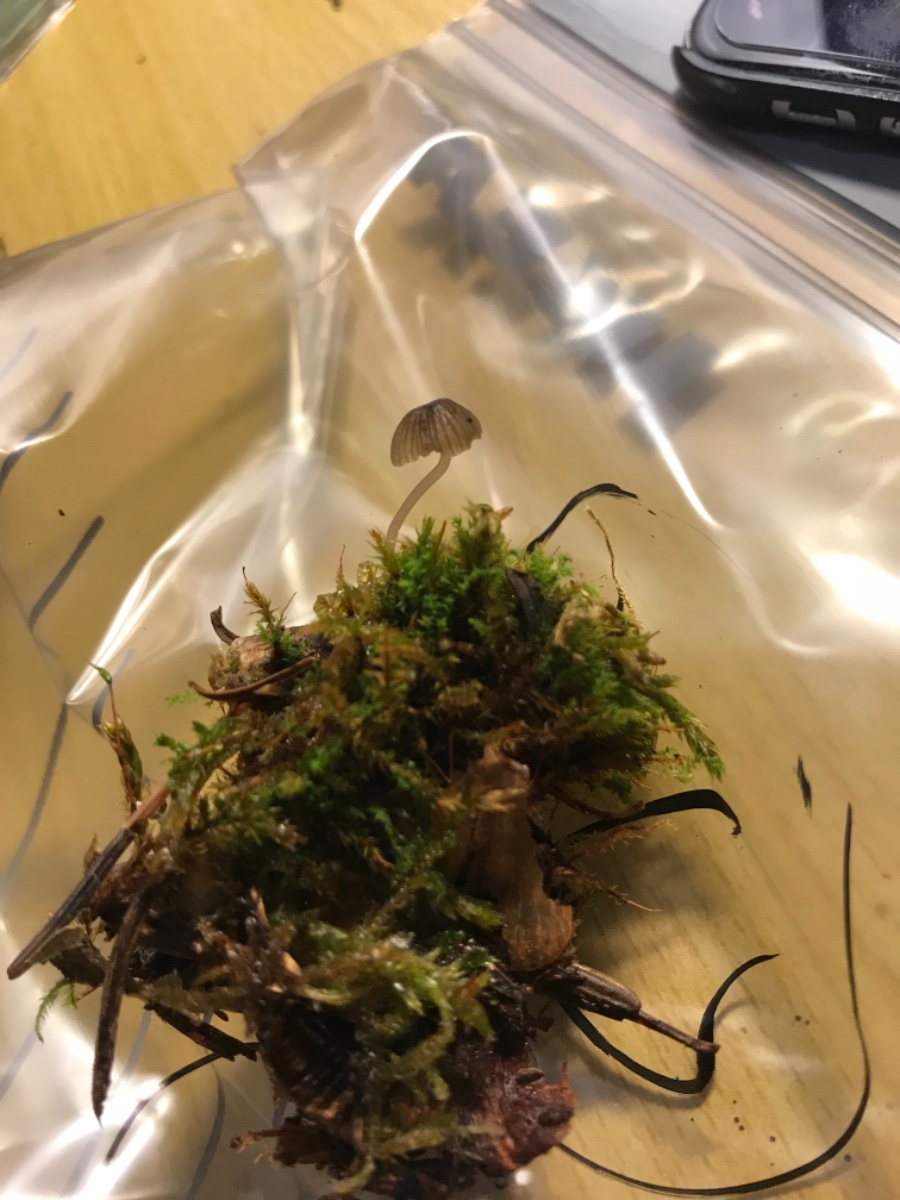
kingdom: Fungi
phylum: Basidiomycota
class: Agaricomycetes
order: Agaricales
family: Mycenaceae
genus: Mycena
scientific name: Mycena
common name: huesvamp
